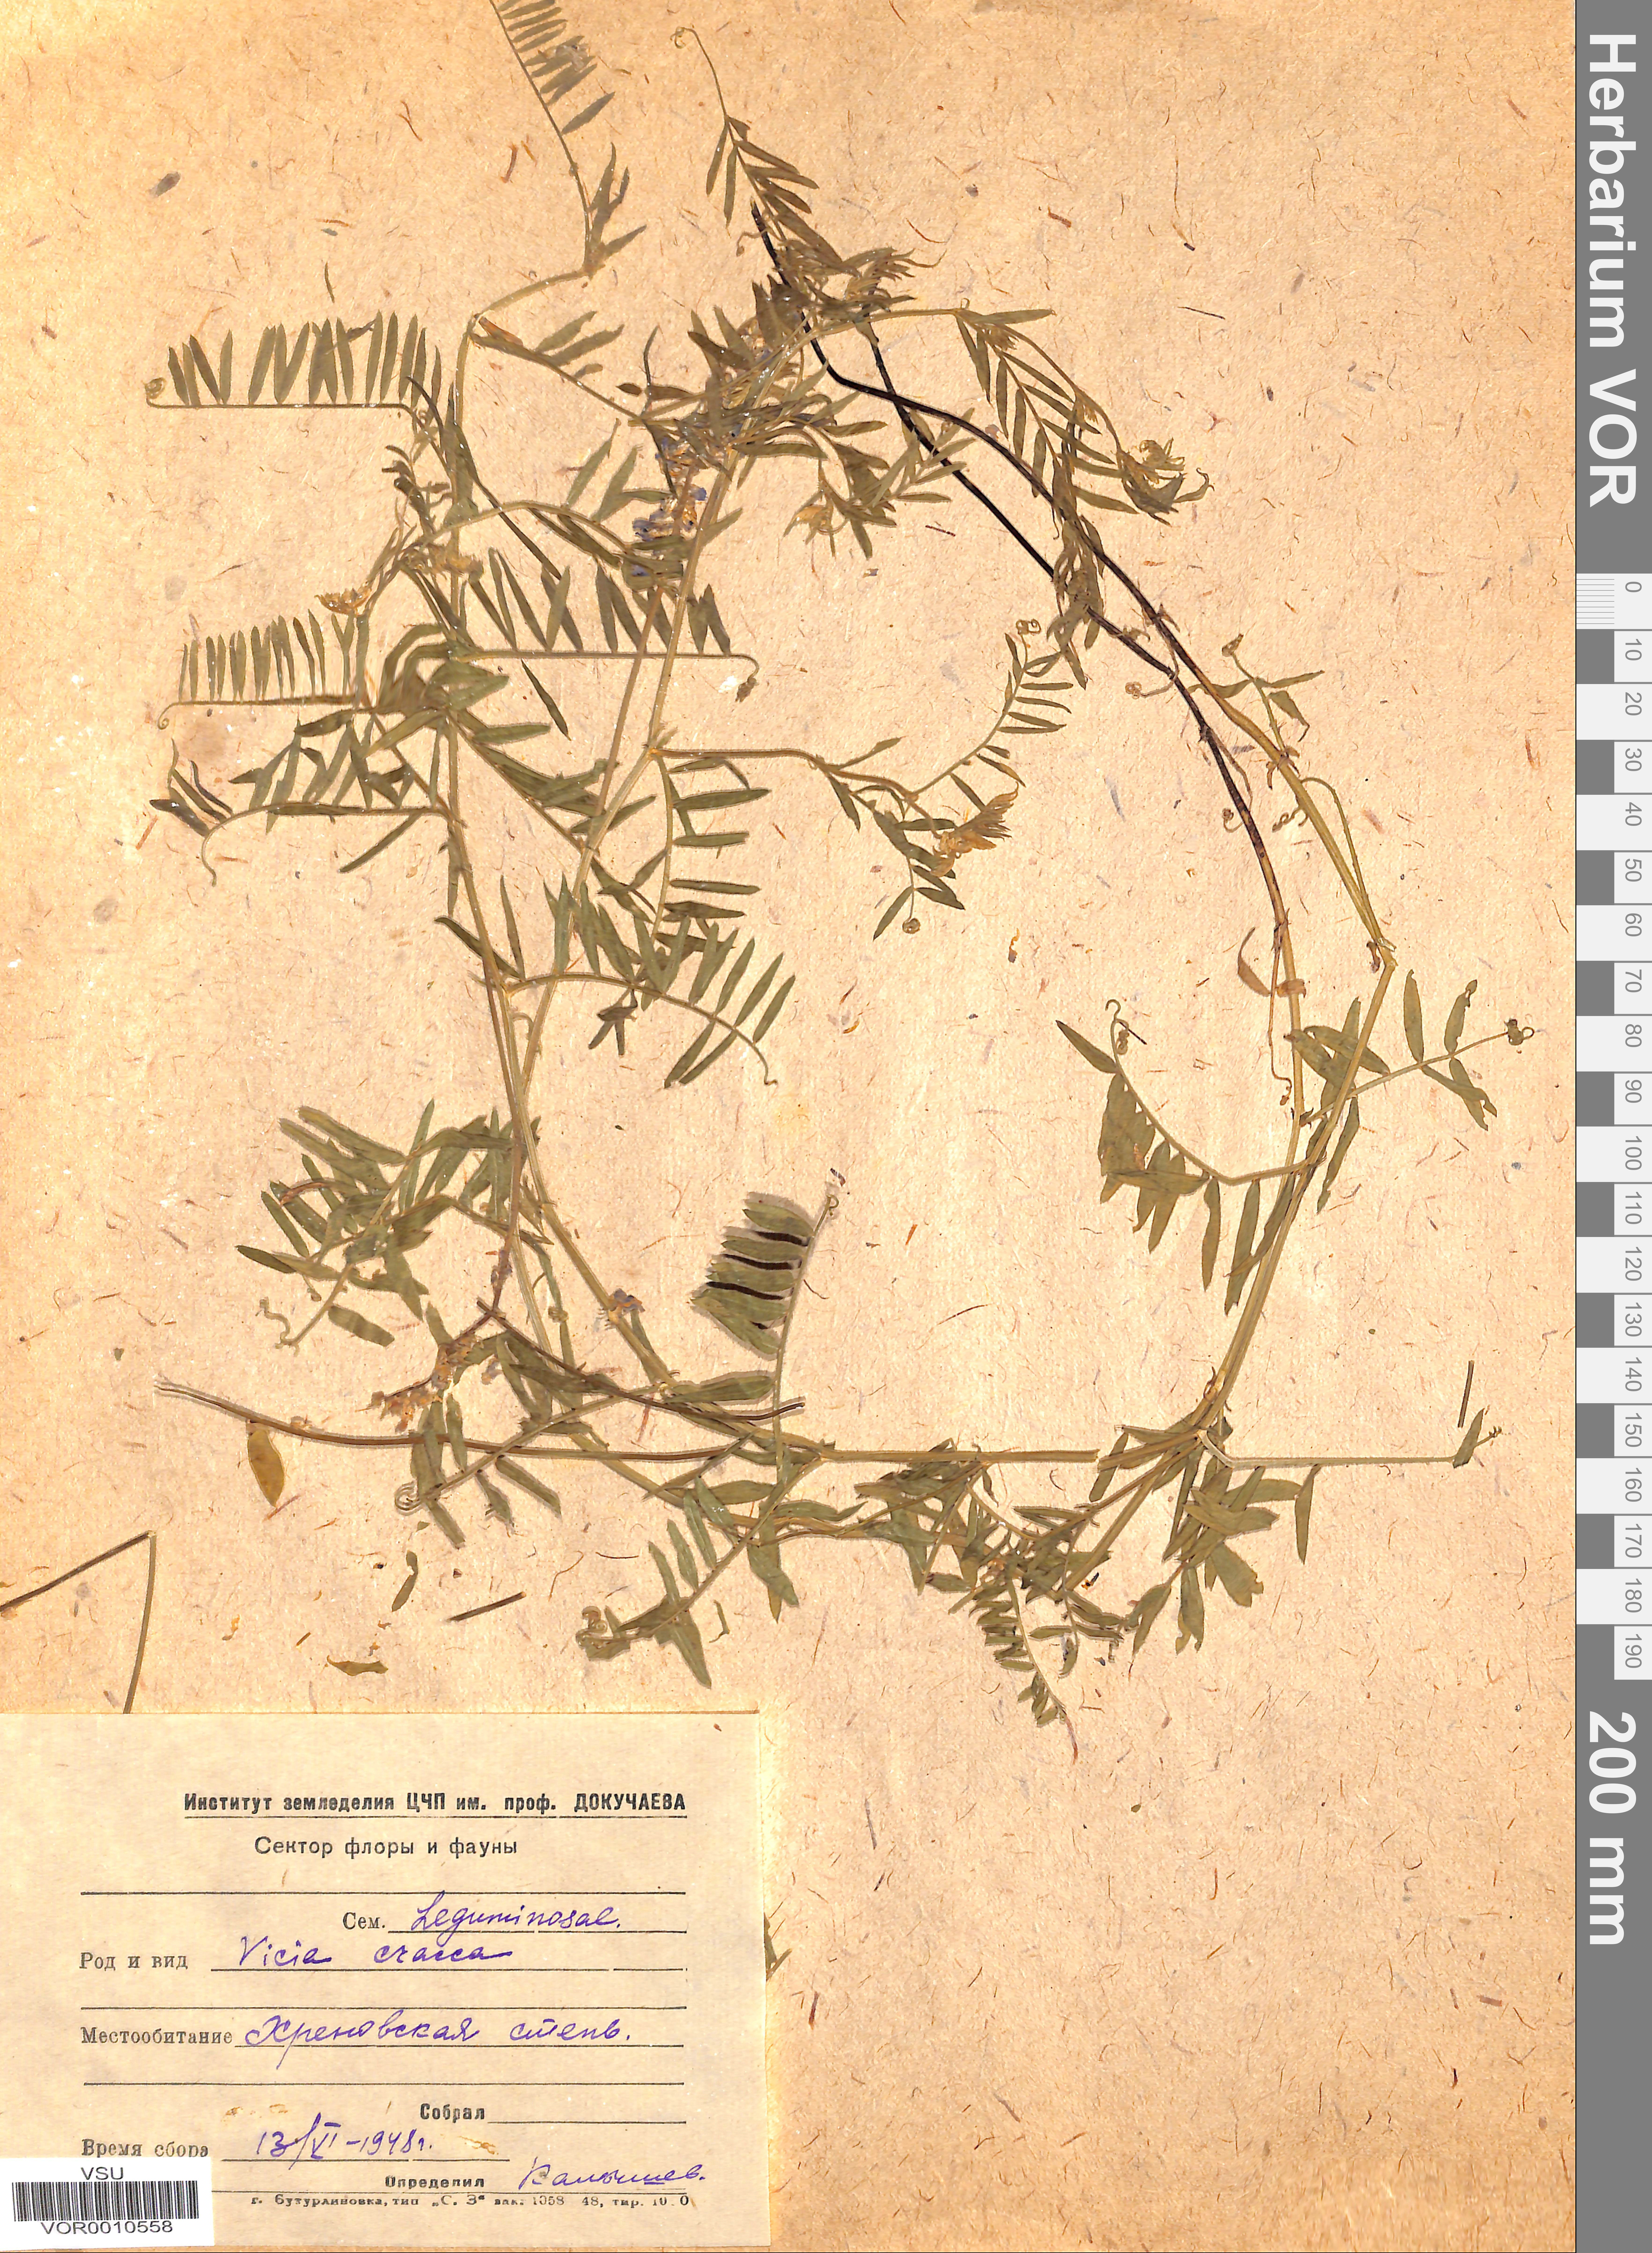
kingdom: Plantae
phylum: Tracheophyta
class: Magnoliopsida
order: Fabales
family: Fabaceae
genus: Vicia
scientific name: Vicia cracca
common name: Bird vetch
